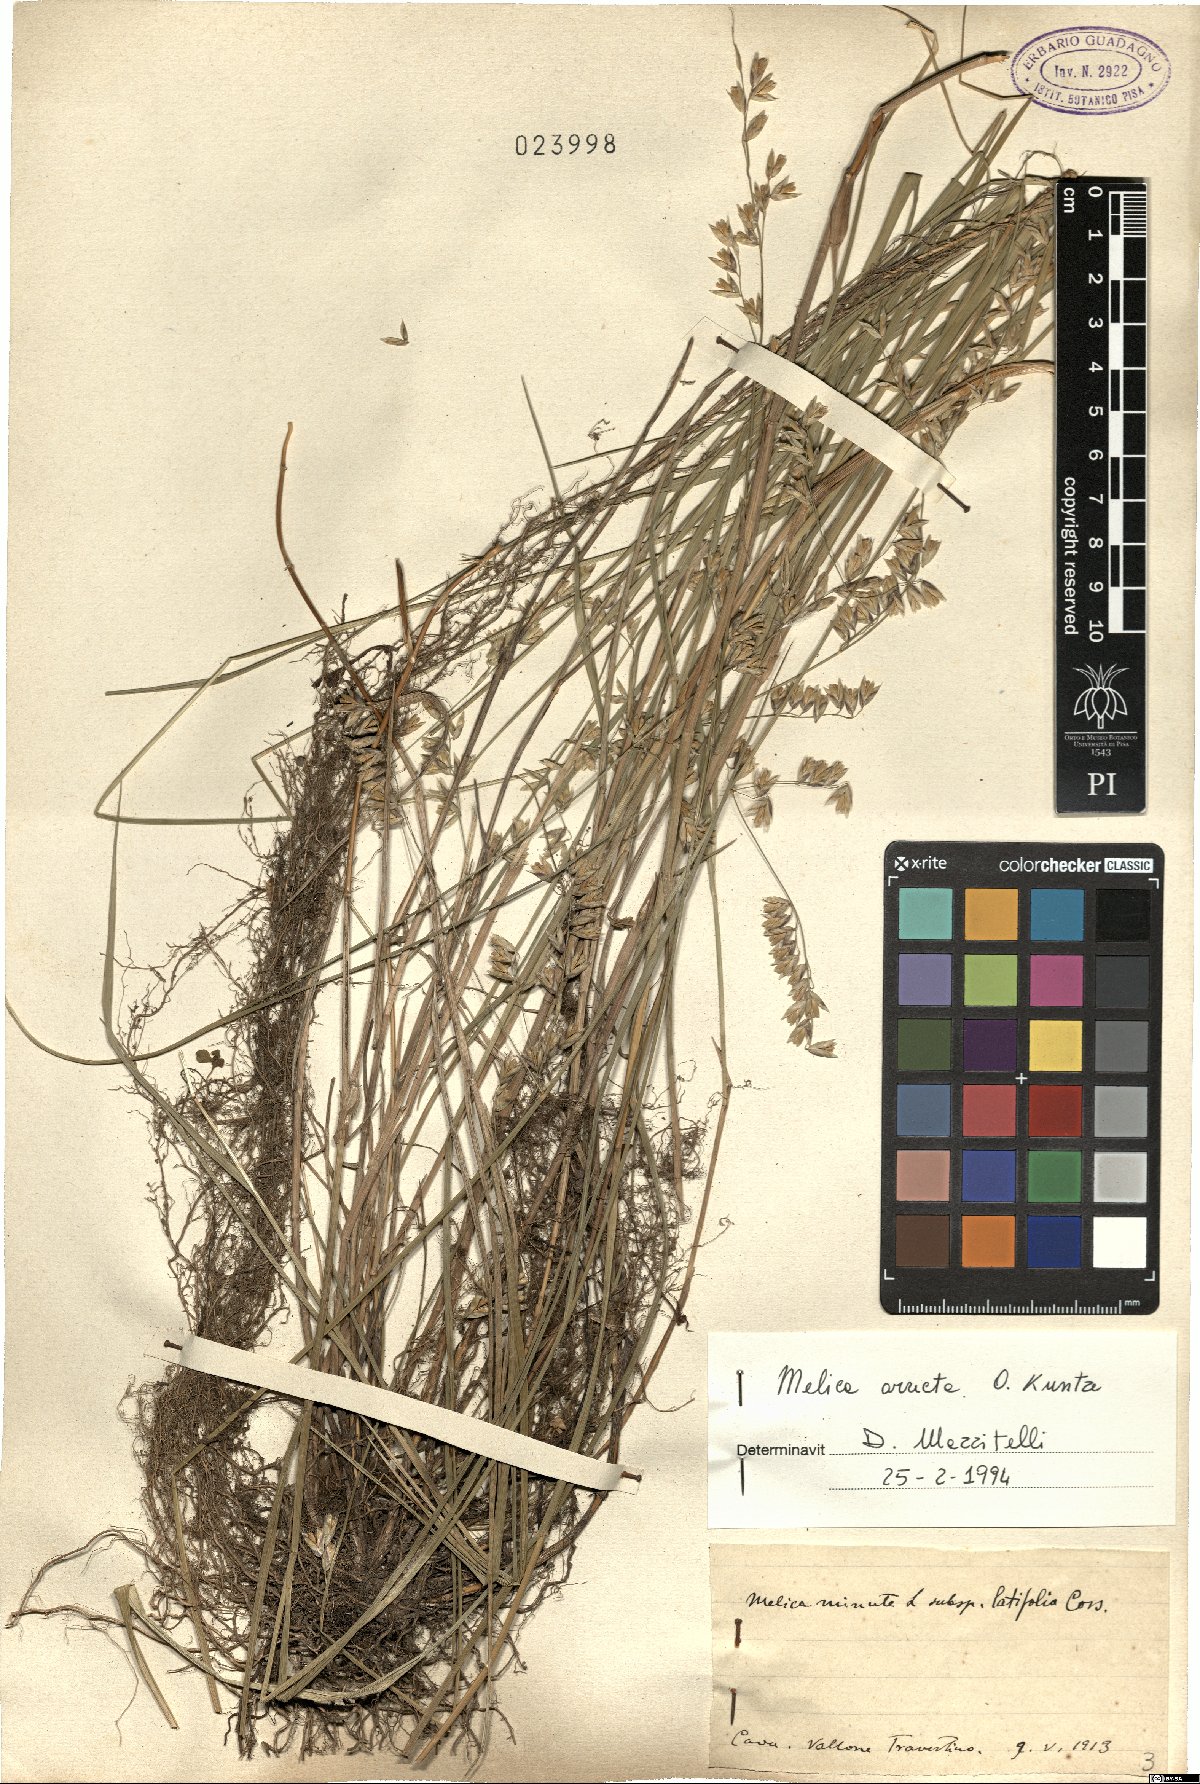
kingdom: Plantae
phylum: Tracheophyta
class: Liliopsida
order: Poales
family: Poaceae
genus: Melica
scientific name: Melica minuta
